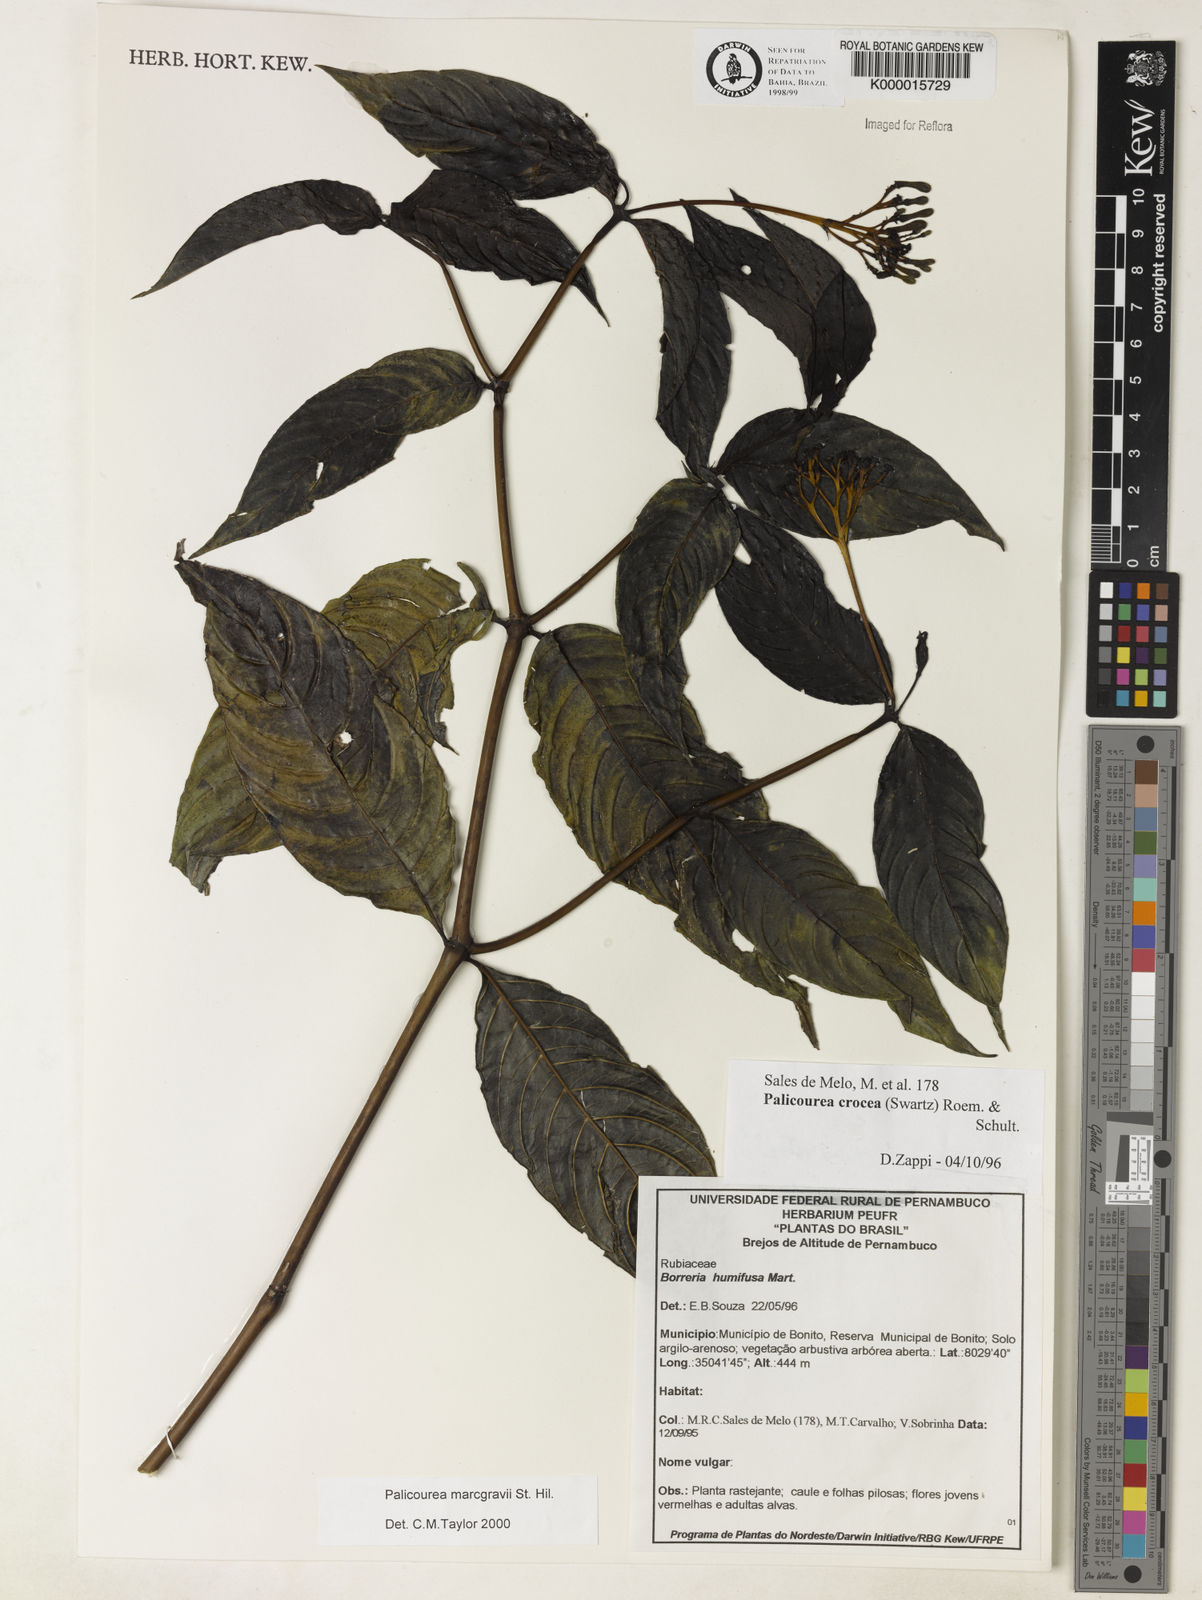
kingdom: Plantae
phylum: Tracheophyta
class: Magnoliopsida
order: Gentianales
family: Rubiaceae
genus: Palicourea
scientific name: Palicourea marcgravii
